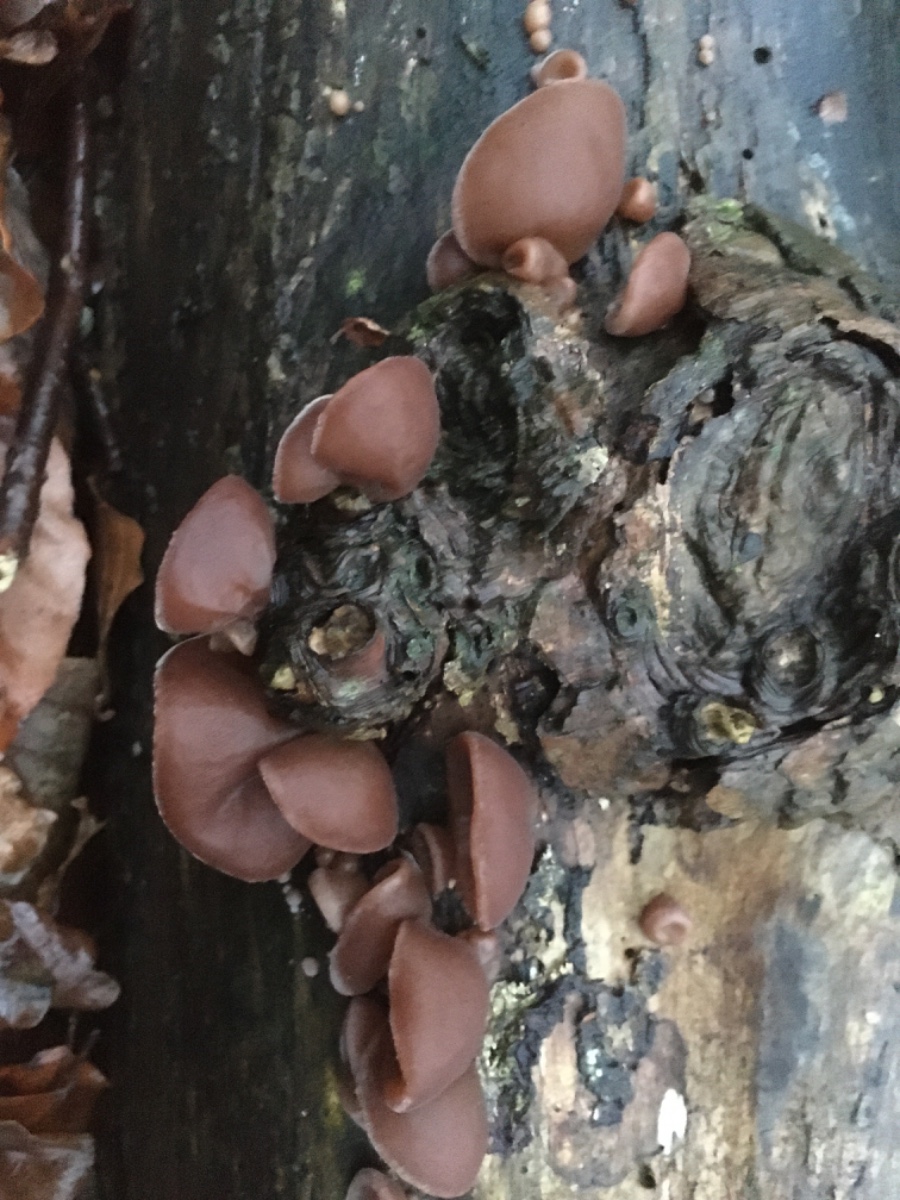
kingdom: Fungi
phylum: Basidiomycota
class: Agaricomycetes
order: Auriculariales
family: Auriculariaceae
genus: Auricularia
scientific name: Auricularia auricula-judae
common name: almindelig judasøre
